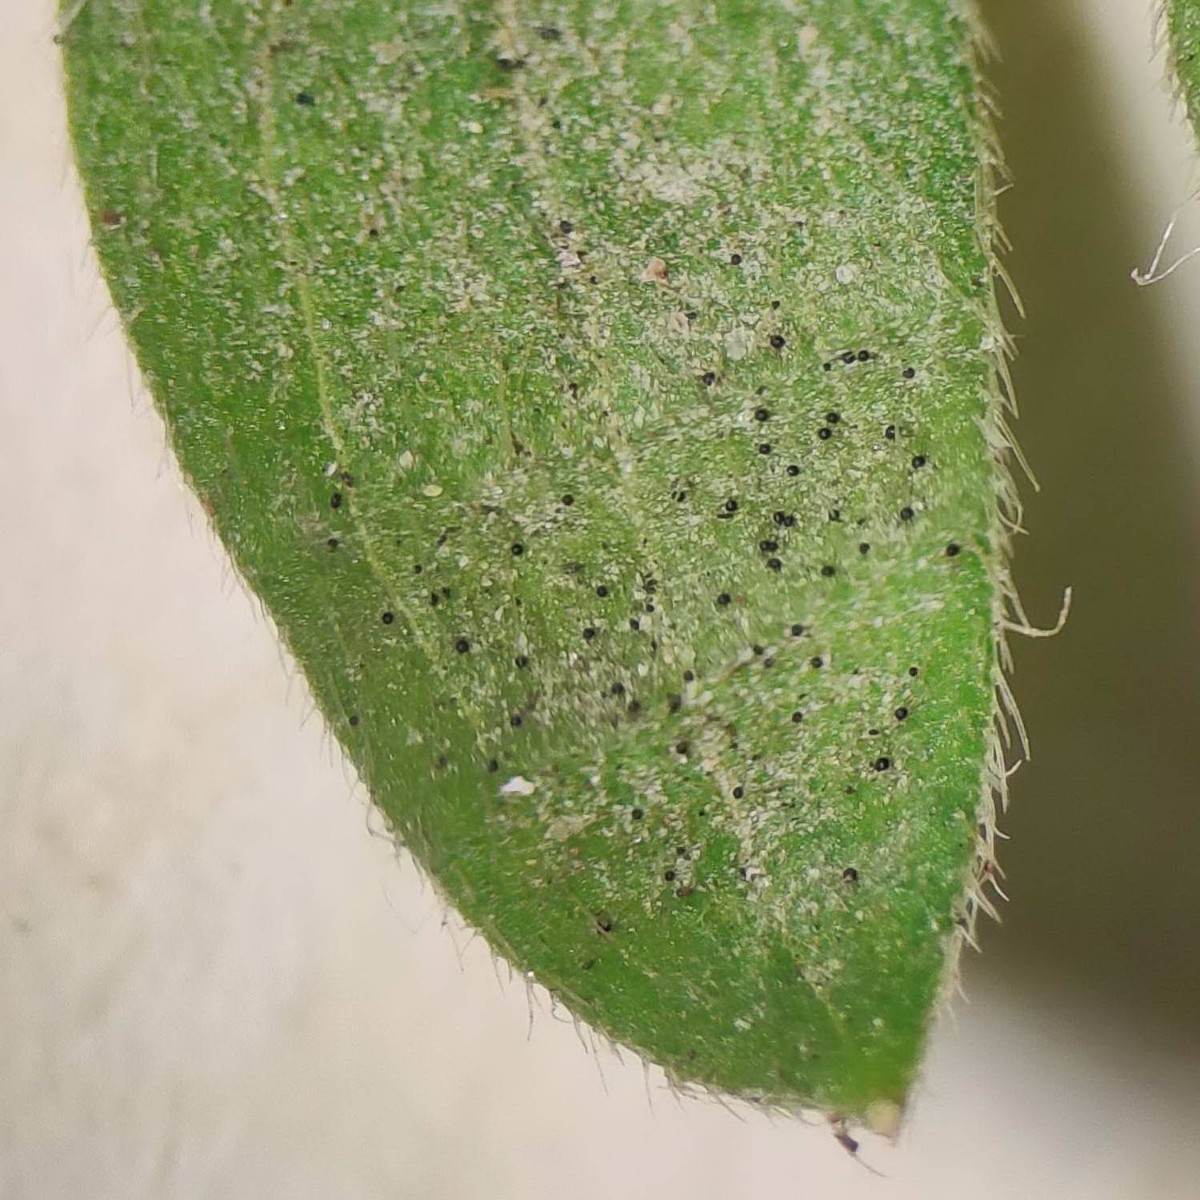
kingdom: Fungi
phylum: Ascomycota
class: Leotiomycetes
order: Helotiales
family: Erysiphaceae
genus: Erysiphe
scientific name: Erysiphe aquilegiae
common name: ranunkel-meldug
